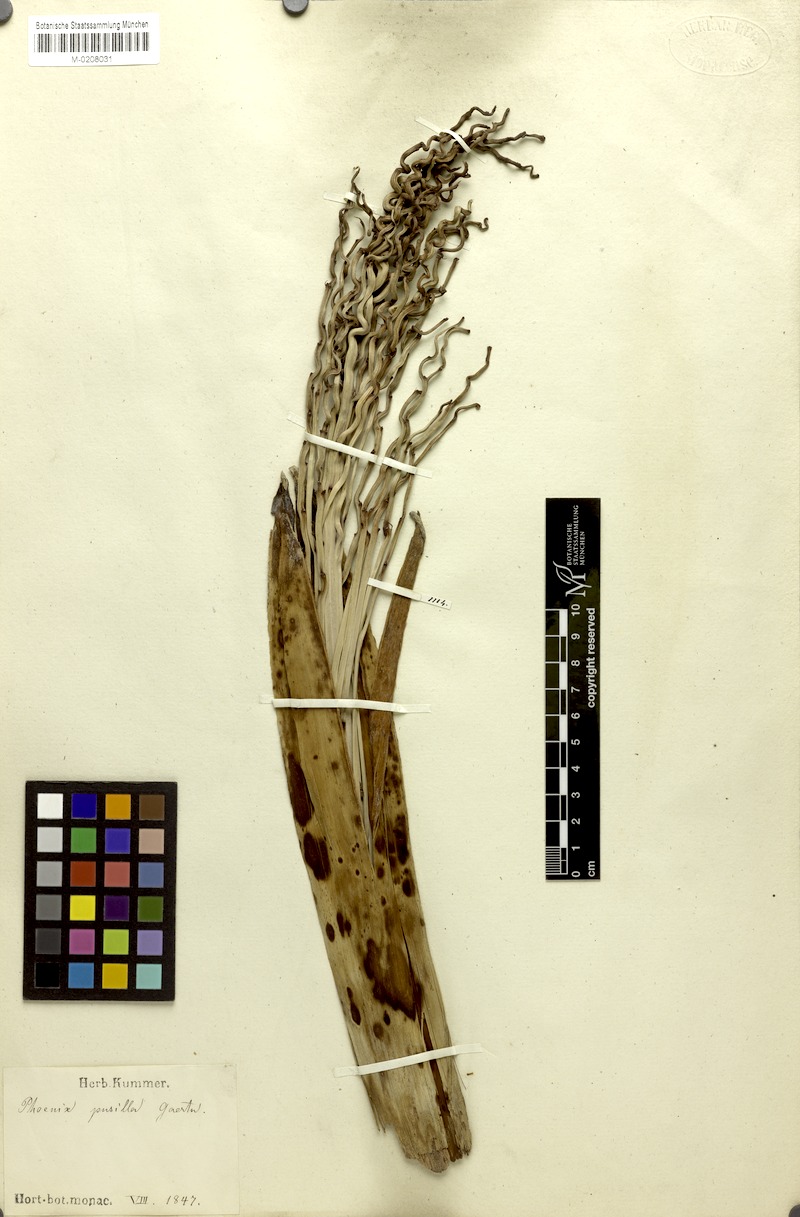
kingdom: Plantae
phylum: Tracheophyta
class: Liliopsida
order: Arecales
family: Arecaceae
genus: Phoenix
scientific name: Phoenix pusilla
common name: Flour palm
